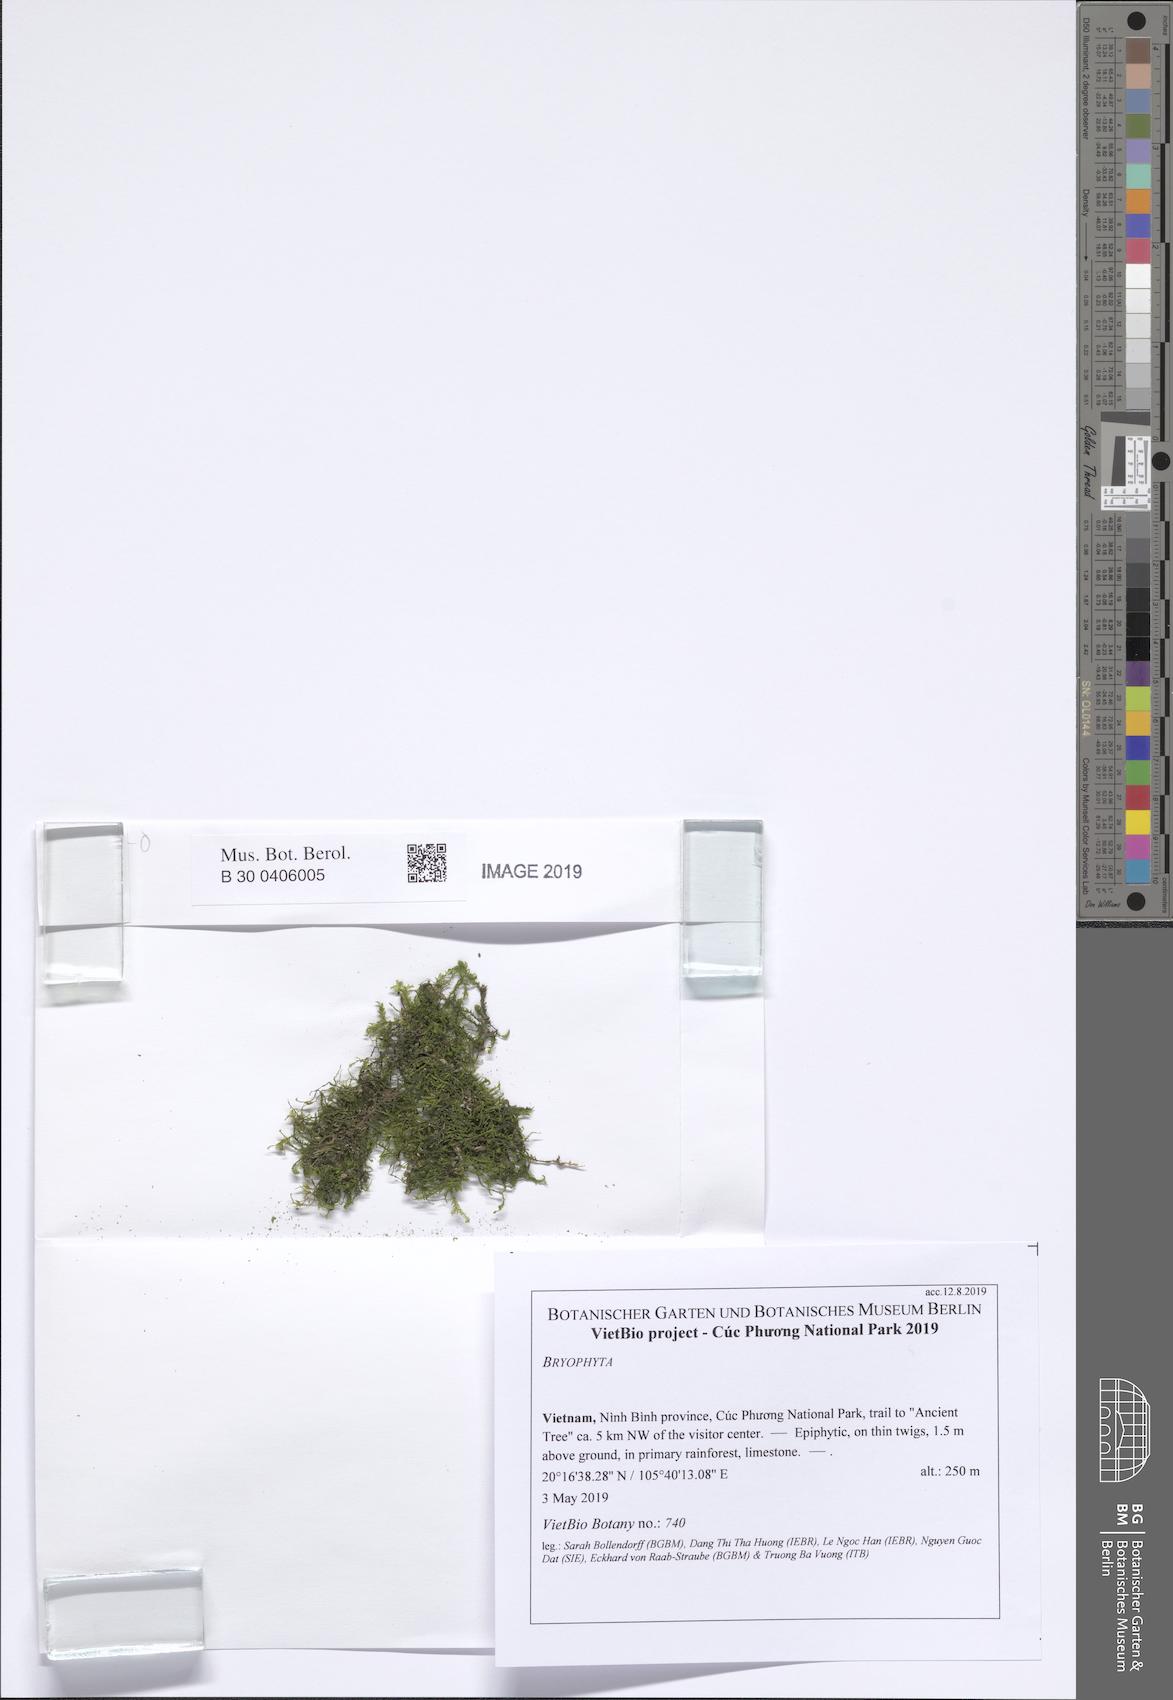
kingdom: Plantae
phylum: Marchantiophyta
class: Jungermanniopsida
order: Jungermanniales
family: Plagiochilaceae
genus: Plagiochila
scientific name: Plagiochila fordiana
